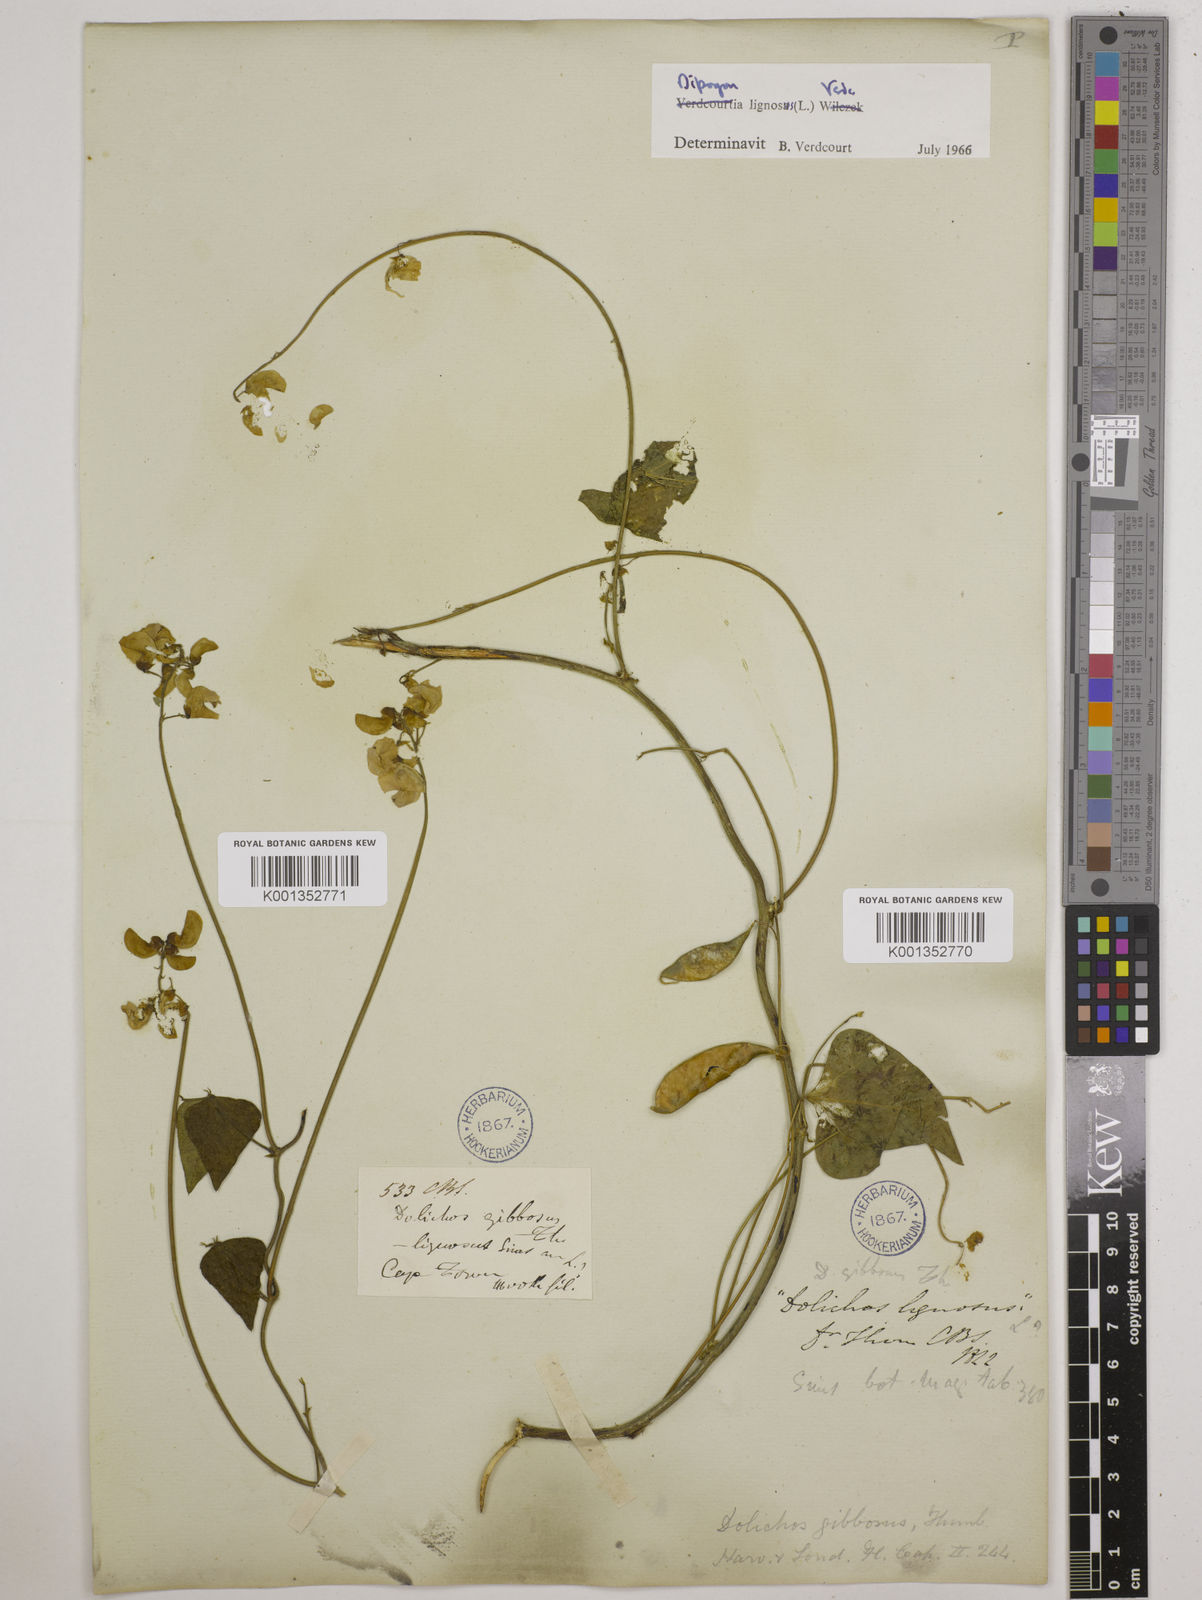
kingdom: Plantae
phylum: Tracheophyta
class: Magnoliopsida
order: Fabales
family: Fabaceae
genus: Dipogon
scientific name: Dipogon lignosus
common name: Okie bean
